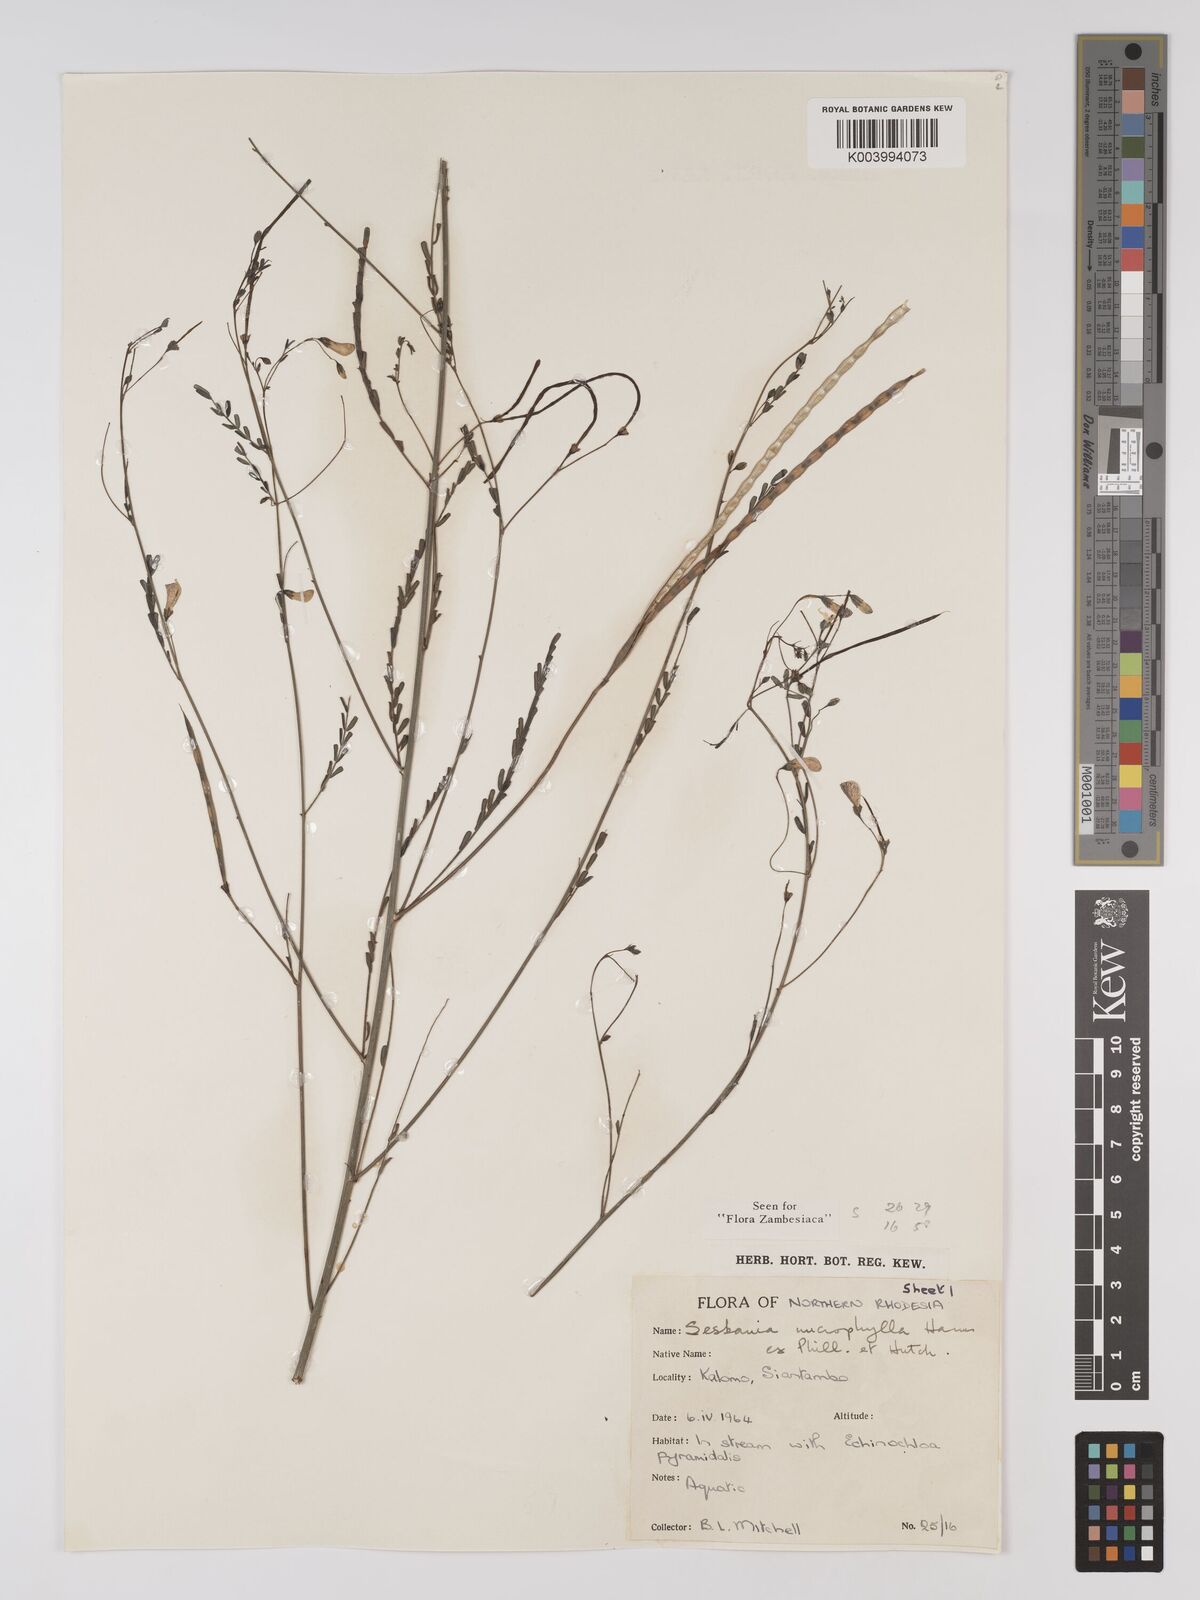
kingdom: Plantae
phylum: Tracheophyta
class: Magnoliopsida
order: Fabales
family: Fabaceae
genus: Sesbania
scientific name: Sesbania microphylla
